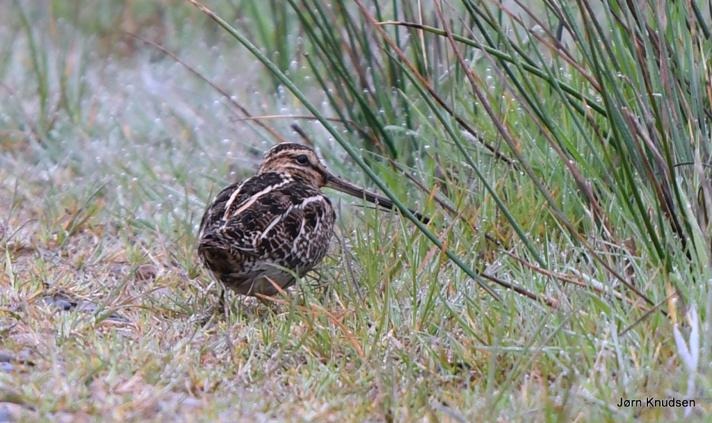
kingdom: Animalia
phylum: Chordata
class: Aves
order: Charadriiformes
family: Scolopacidae
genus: Gallinago
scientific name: Gallinago gallinago
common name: Dobbeltbekkasin
